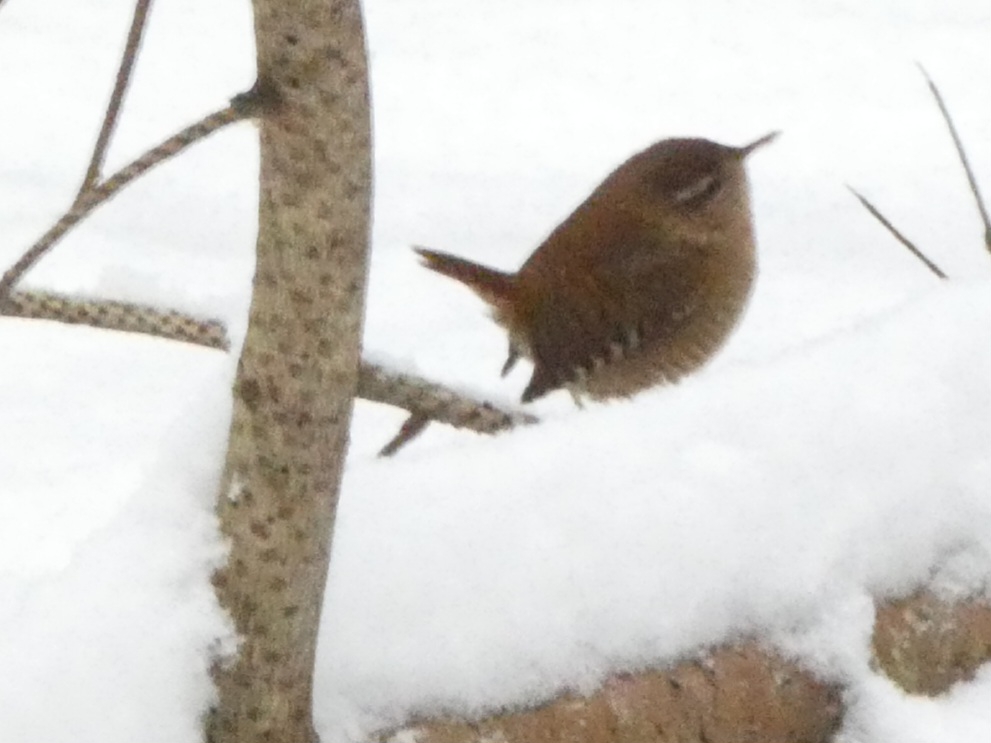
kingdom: Animalia
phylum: Chordata
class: Aves
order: Passeriformes
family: Troglodytidae
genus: Troglodytes
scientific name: Troglodytes troglodytes
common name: Gærdesmutte
